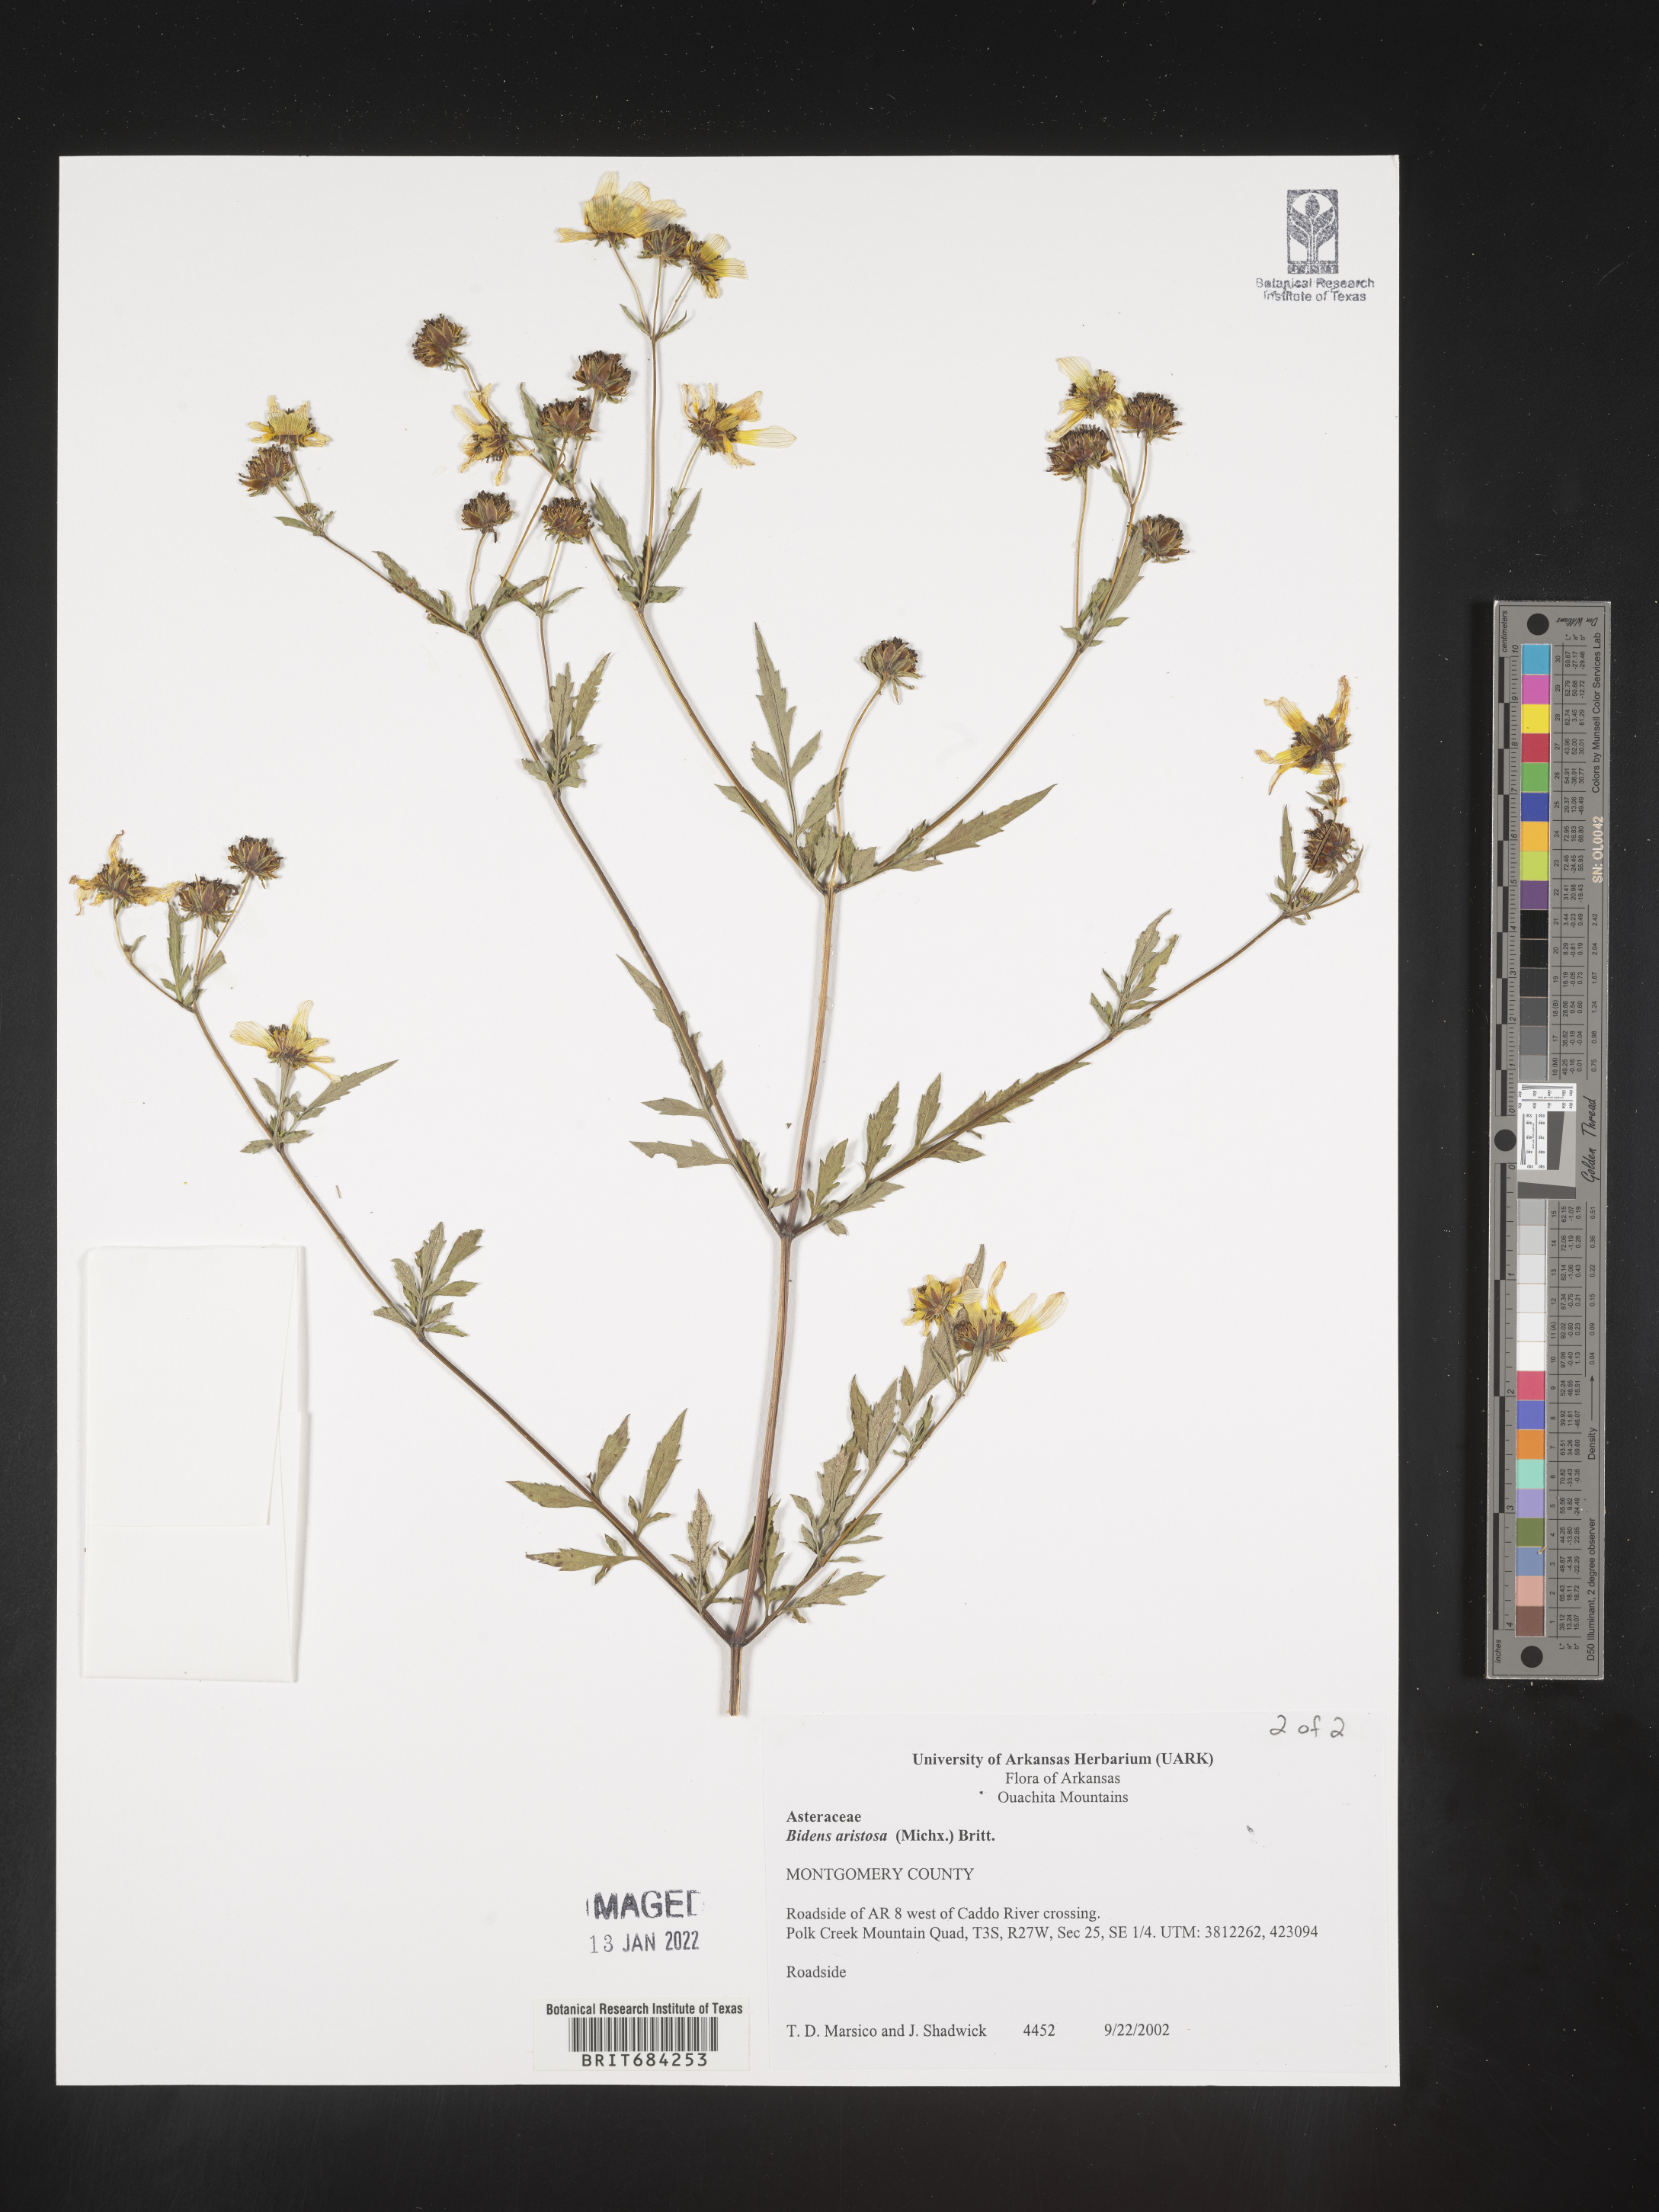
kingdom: Plantae
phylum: Tracheophyta
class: Magnoliopsida
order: Asterales
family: Asteraceae
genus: Bidens
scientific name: Bidens aristosa
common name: Western tickseed
